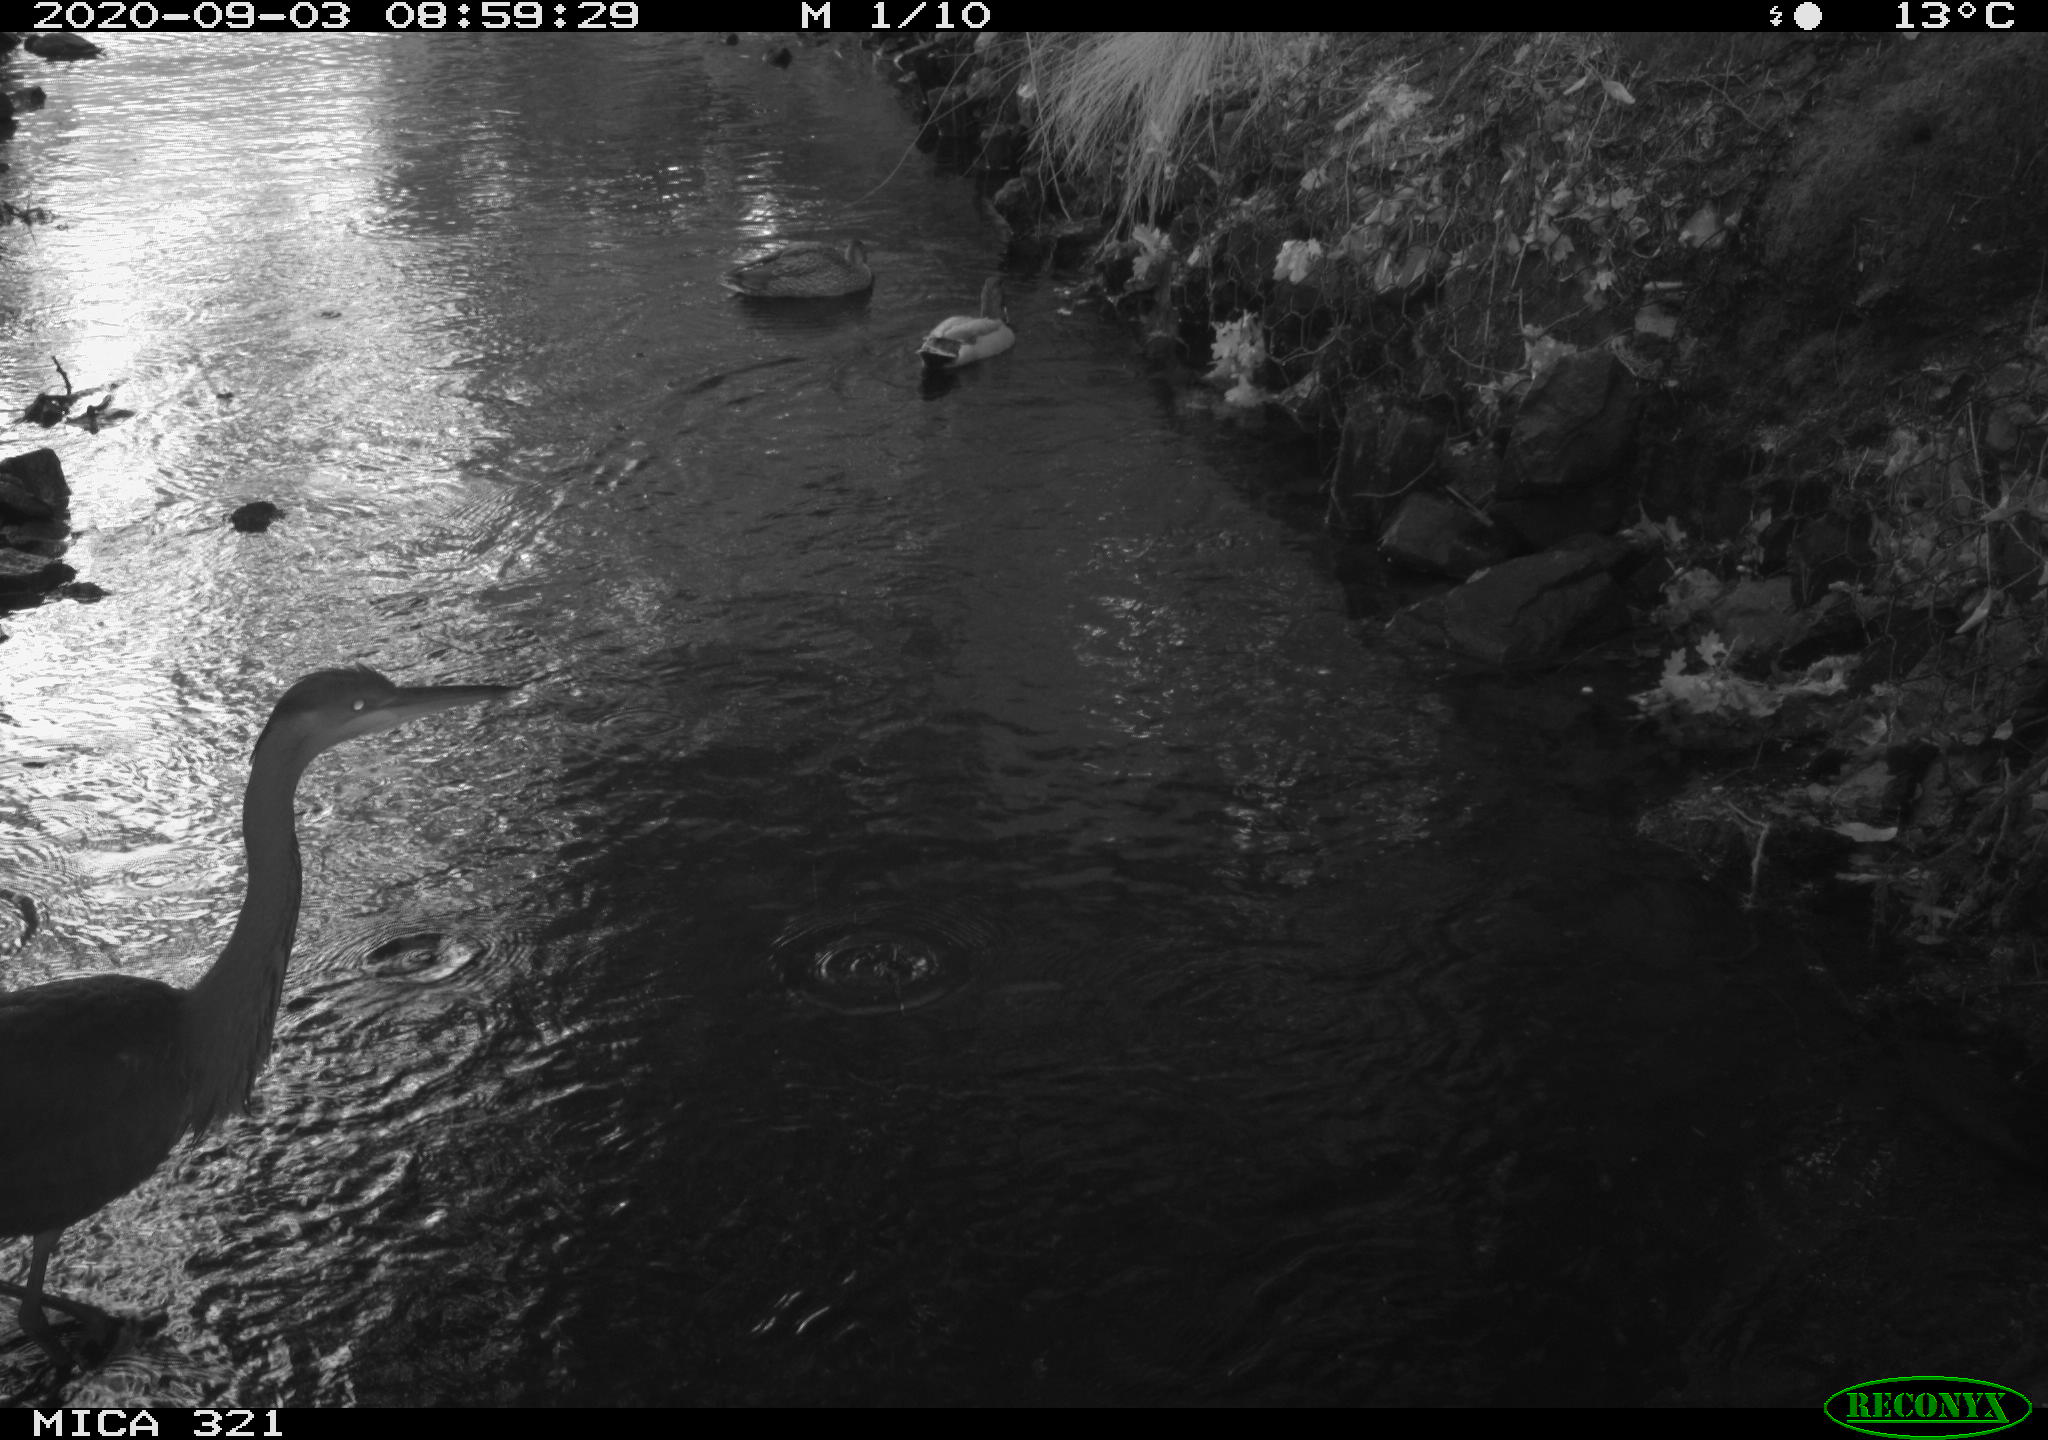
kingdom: Animalia
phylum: Chordata
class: Aves
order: Anseriformes
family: Anatidae
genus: Anas
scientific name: Anas platyrhynchos
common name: Mallard
